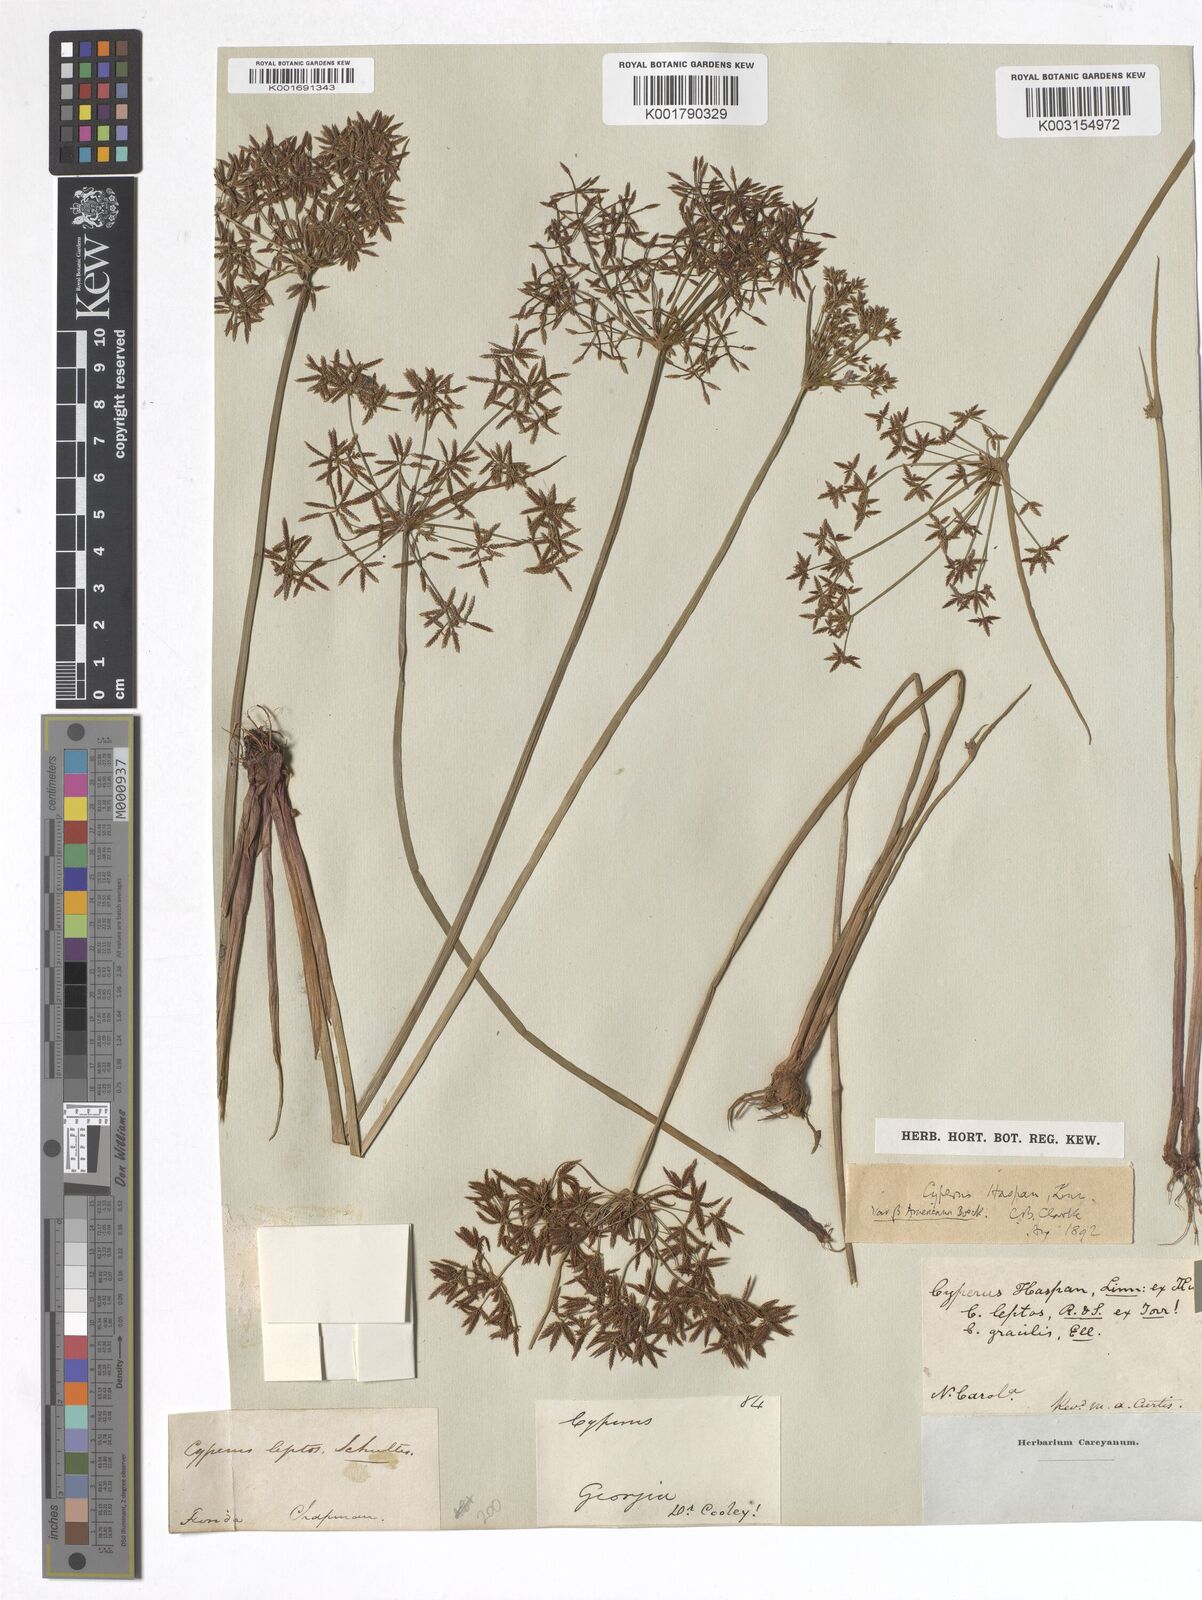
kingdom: Plantae
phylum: Tracheophyta
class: Liliopsida
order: Poales
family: Cyperaceae
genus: Cyperus
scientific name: Cyperus haspan
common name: Haspan flatsedge
